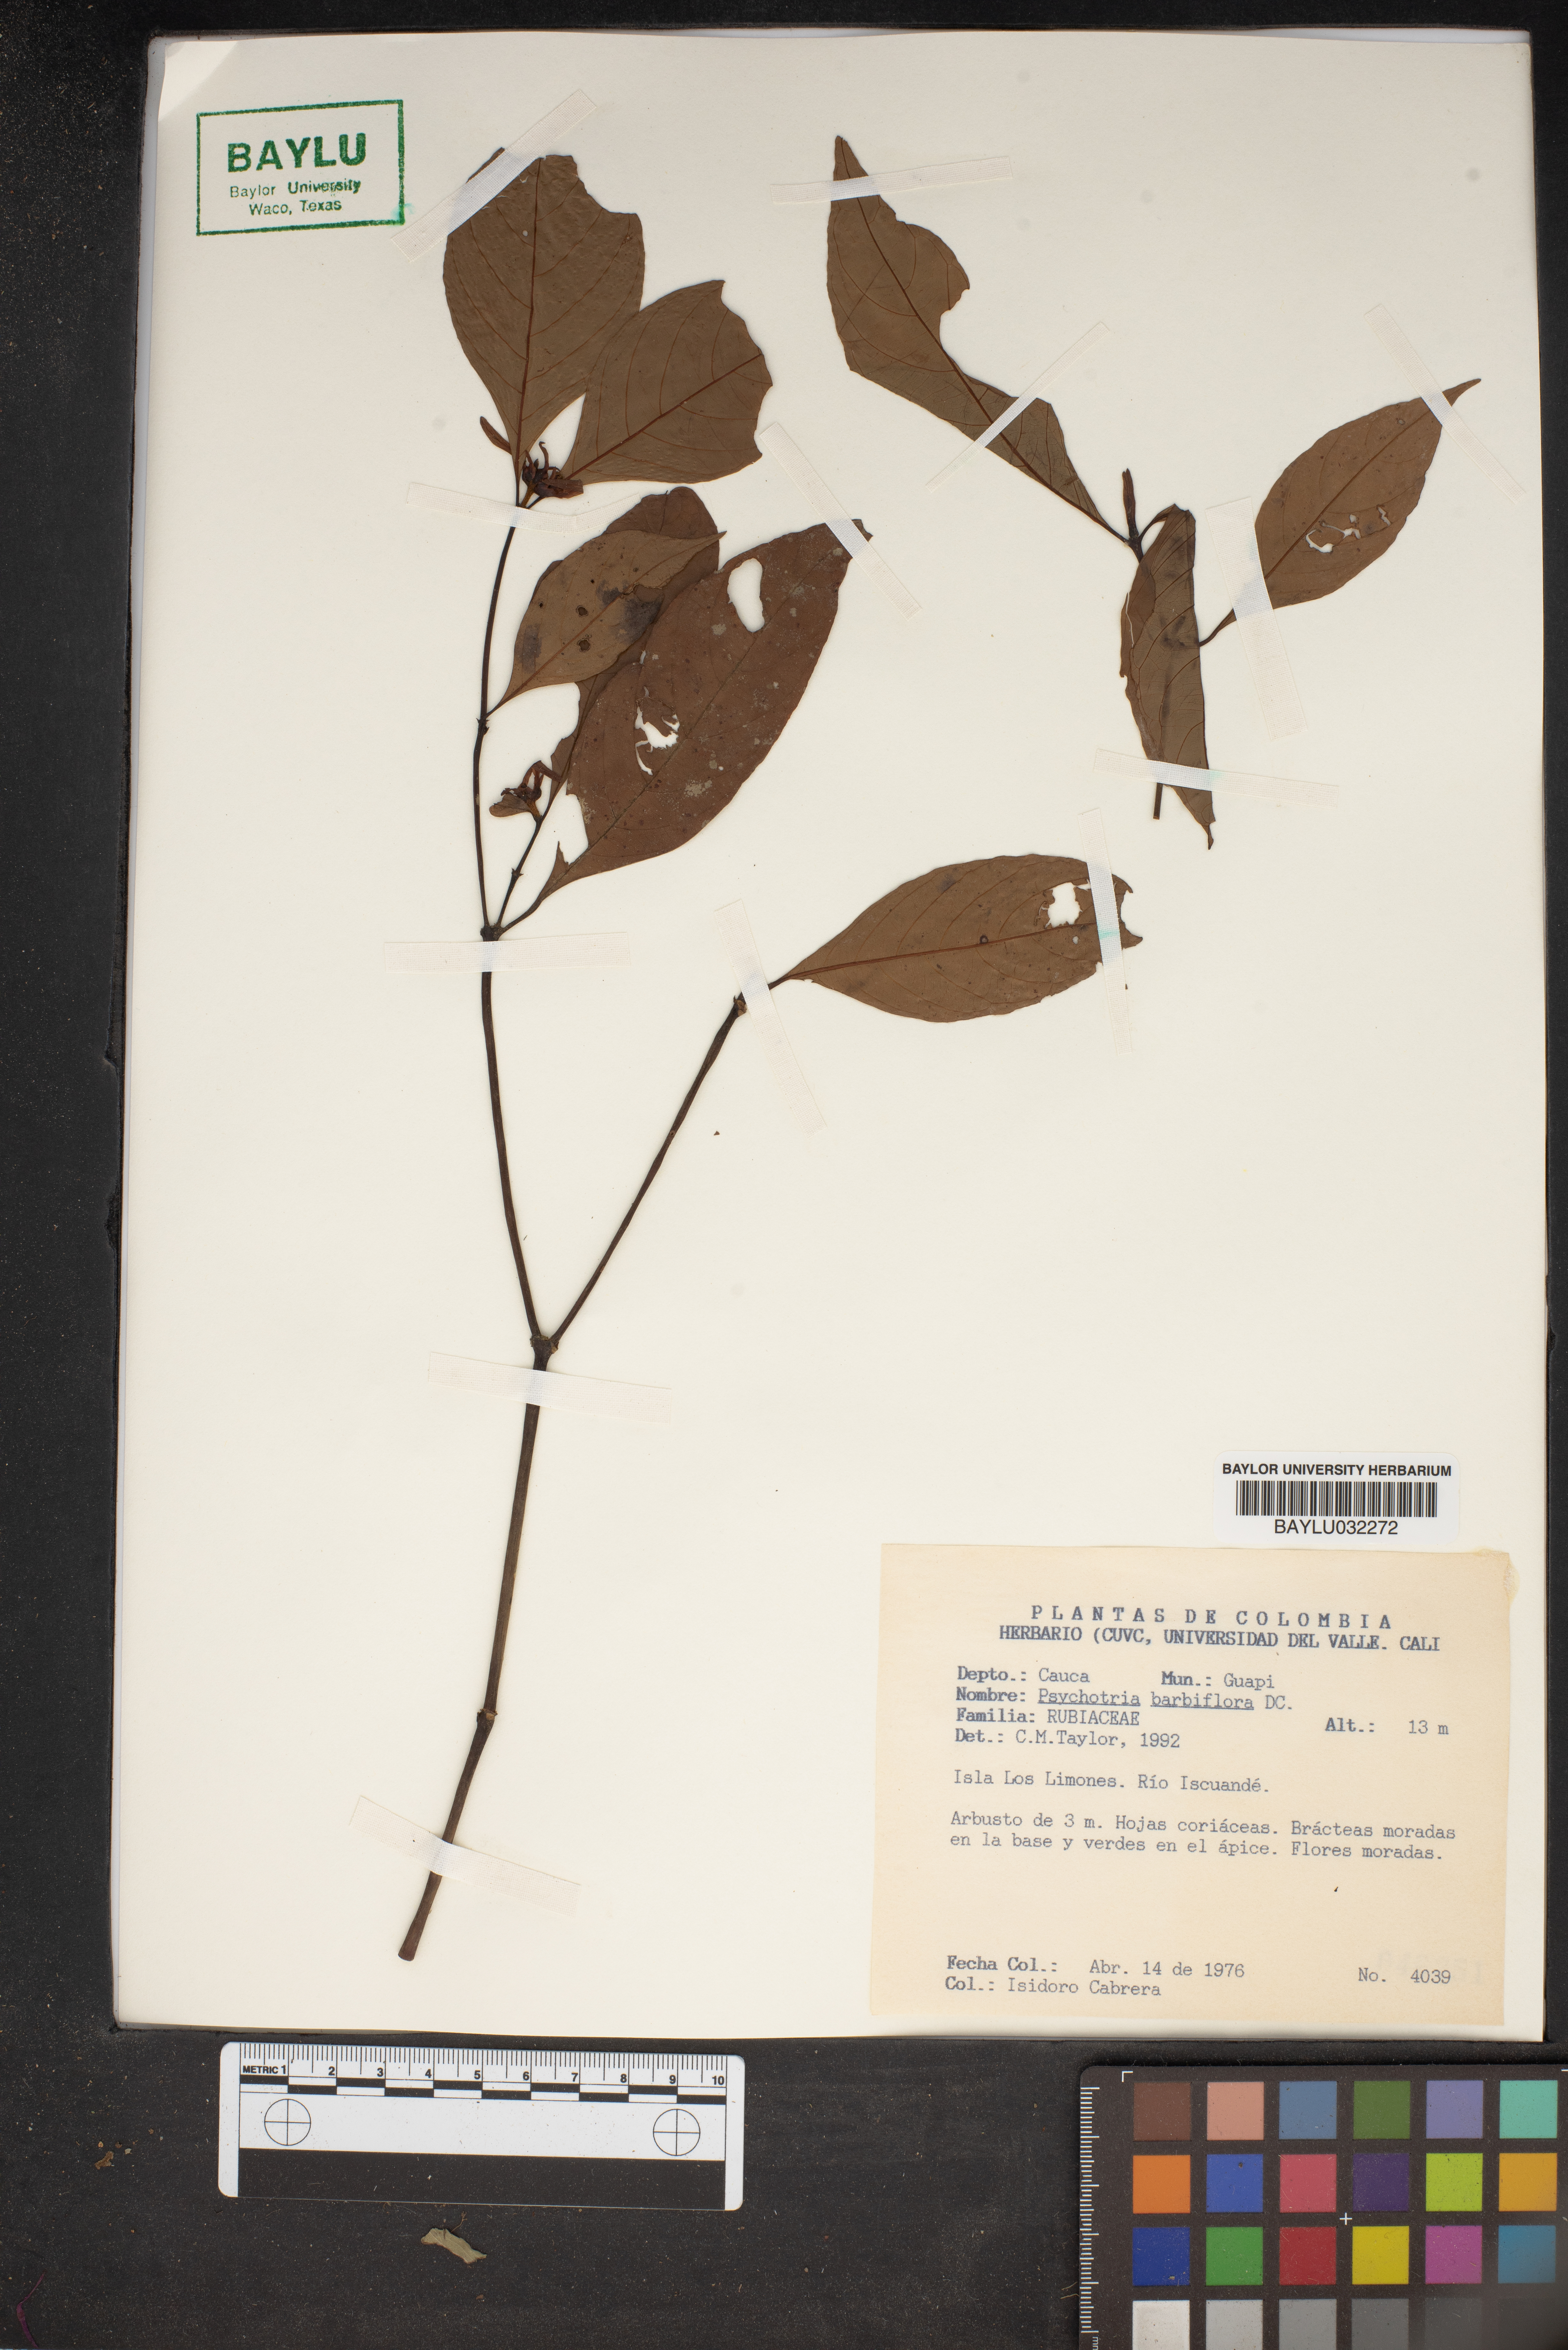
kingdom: Plantae
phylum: Tracheophyta
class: Magnoliopsida
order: Gentianales
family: Rubiaceae
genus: Palicourea
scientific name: Palicourea hoffmannseggiana
